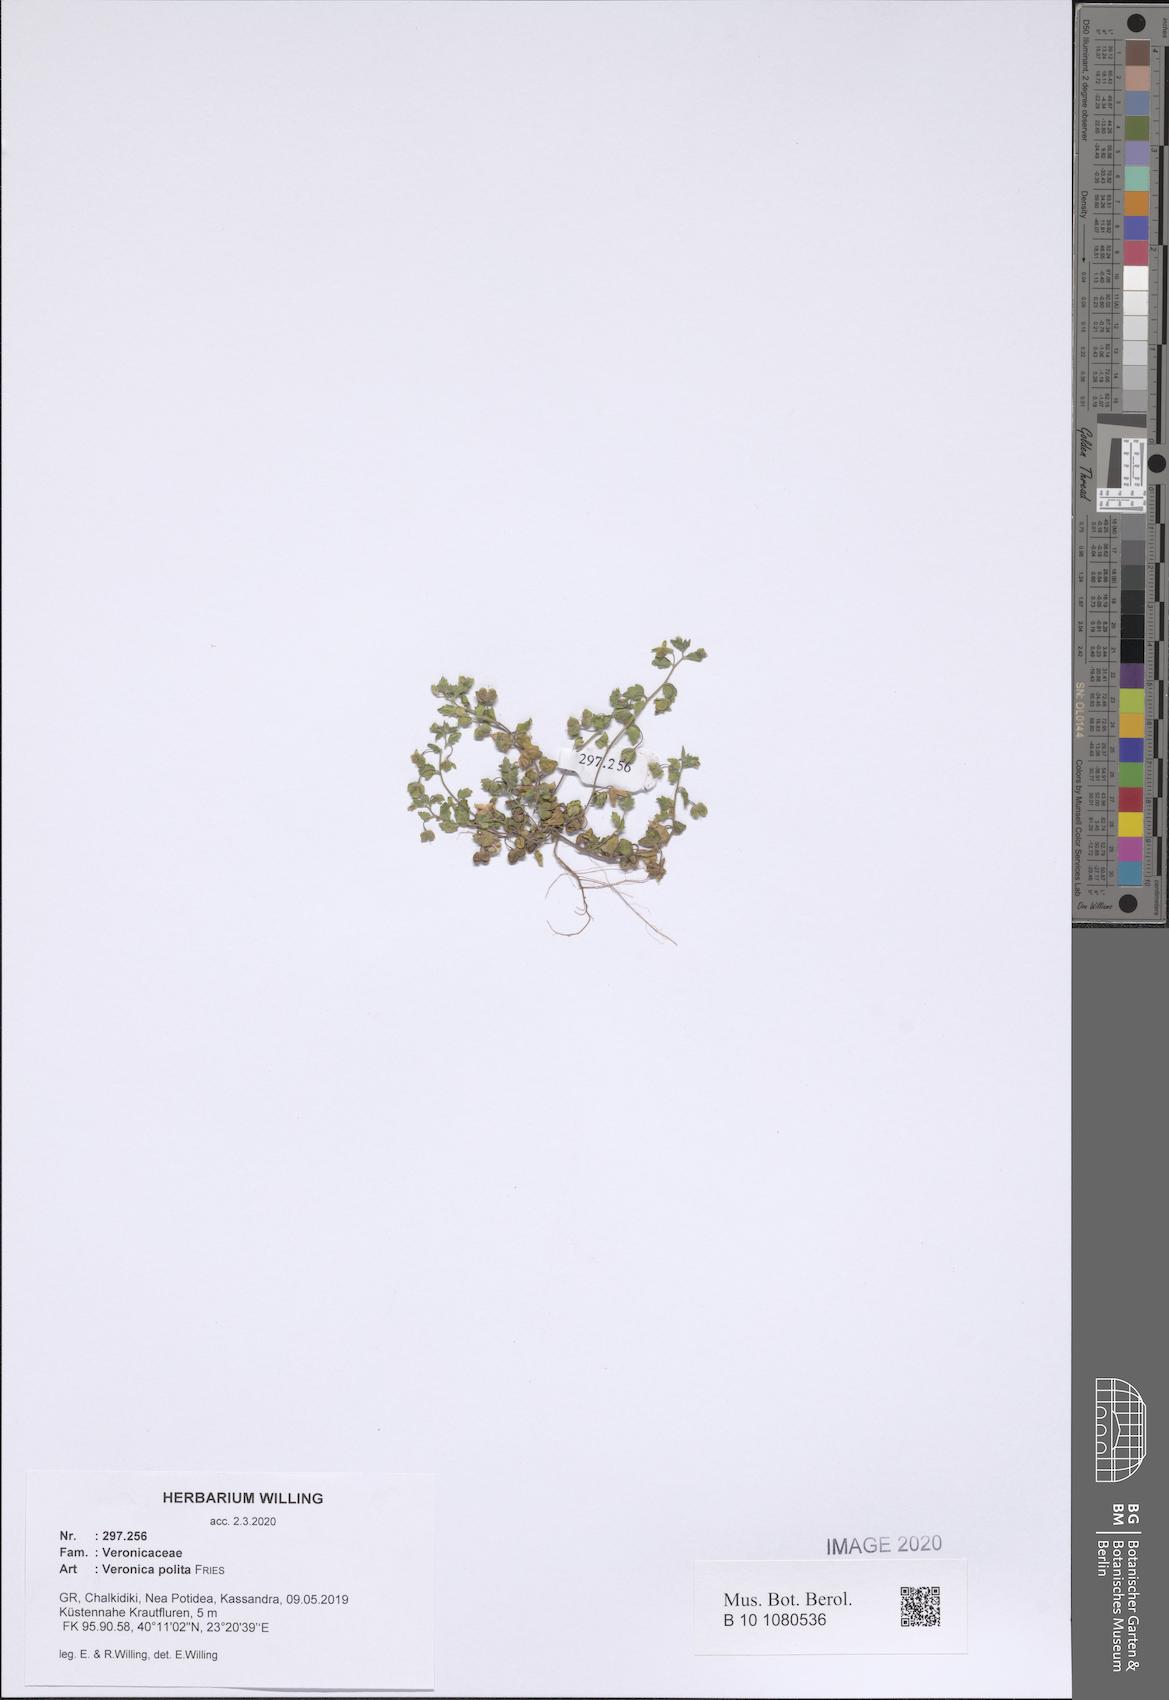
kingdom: Plantae
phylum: Tracheophyta
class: Magnoliopsida
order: Lamiales
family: Plantaginaceae
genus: Veronica
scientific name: Veronica polita
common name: Grey field-speedwell
